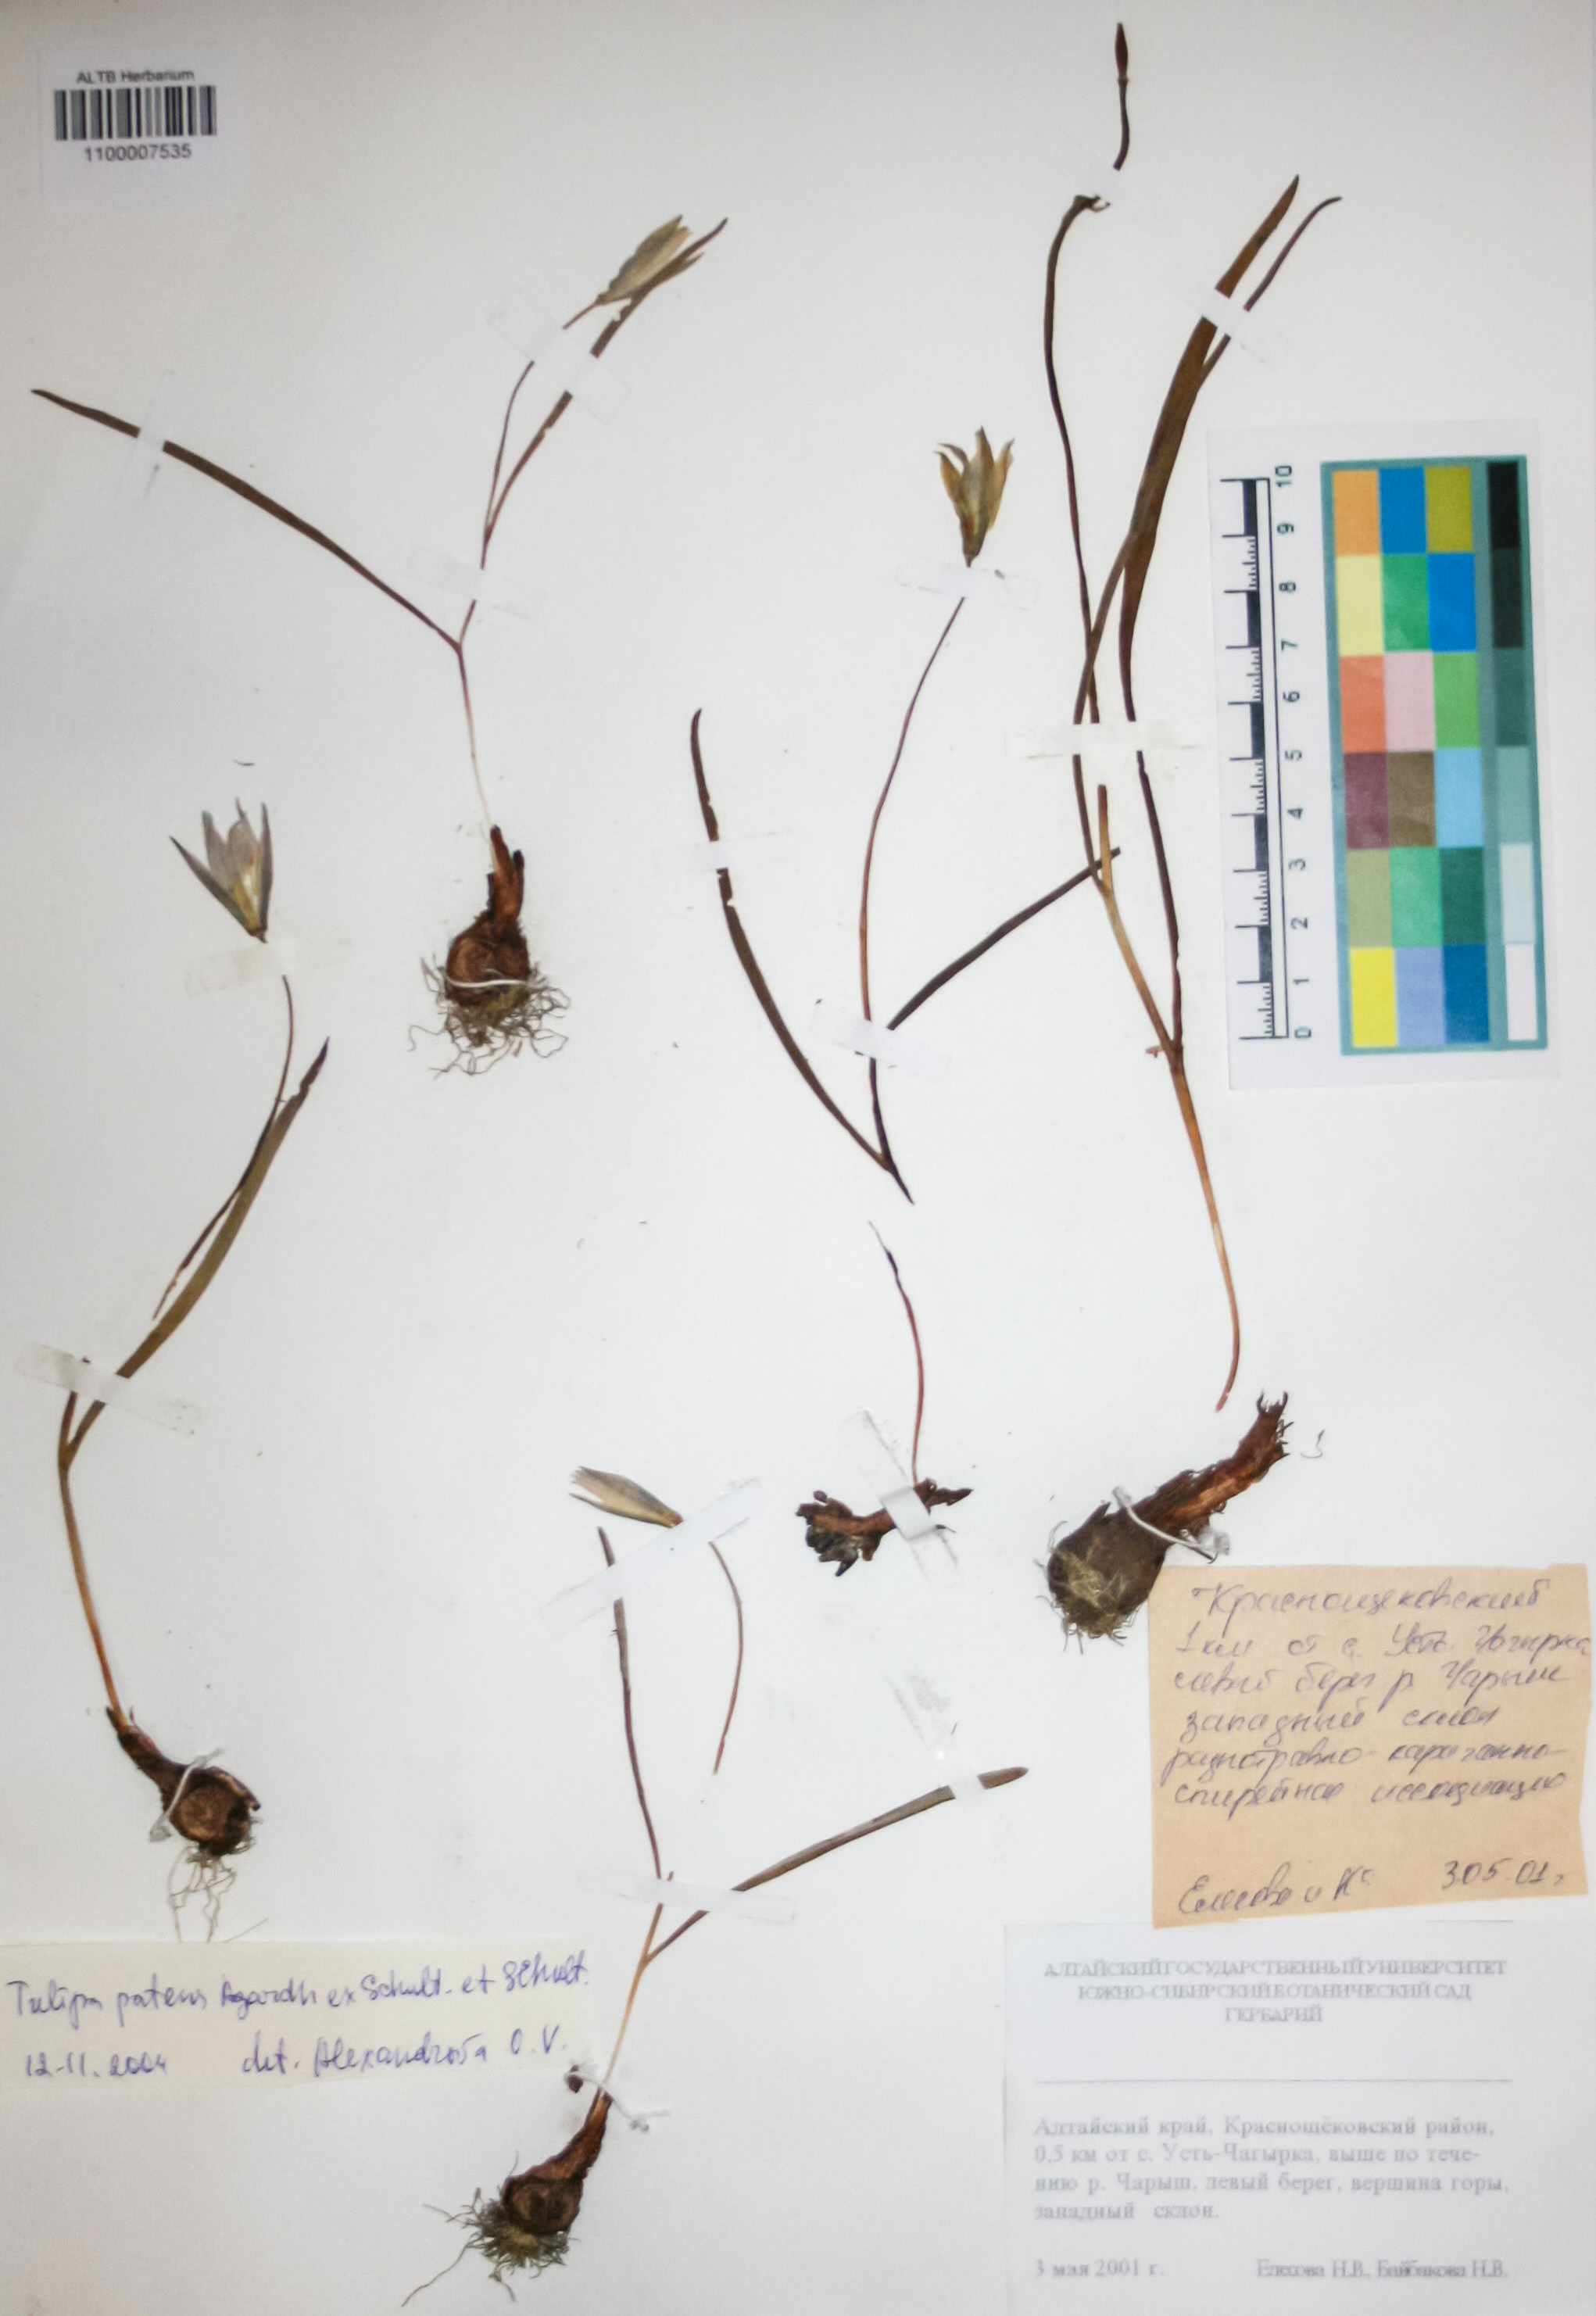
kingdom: Plantae
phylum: Tracheophyta
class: Liliopsida
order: Liliales
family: Liliaceae
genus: Tulipa
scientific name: Tulipa patens
